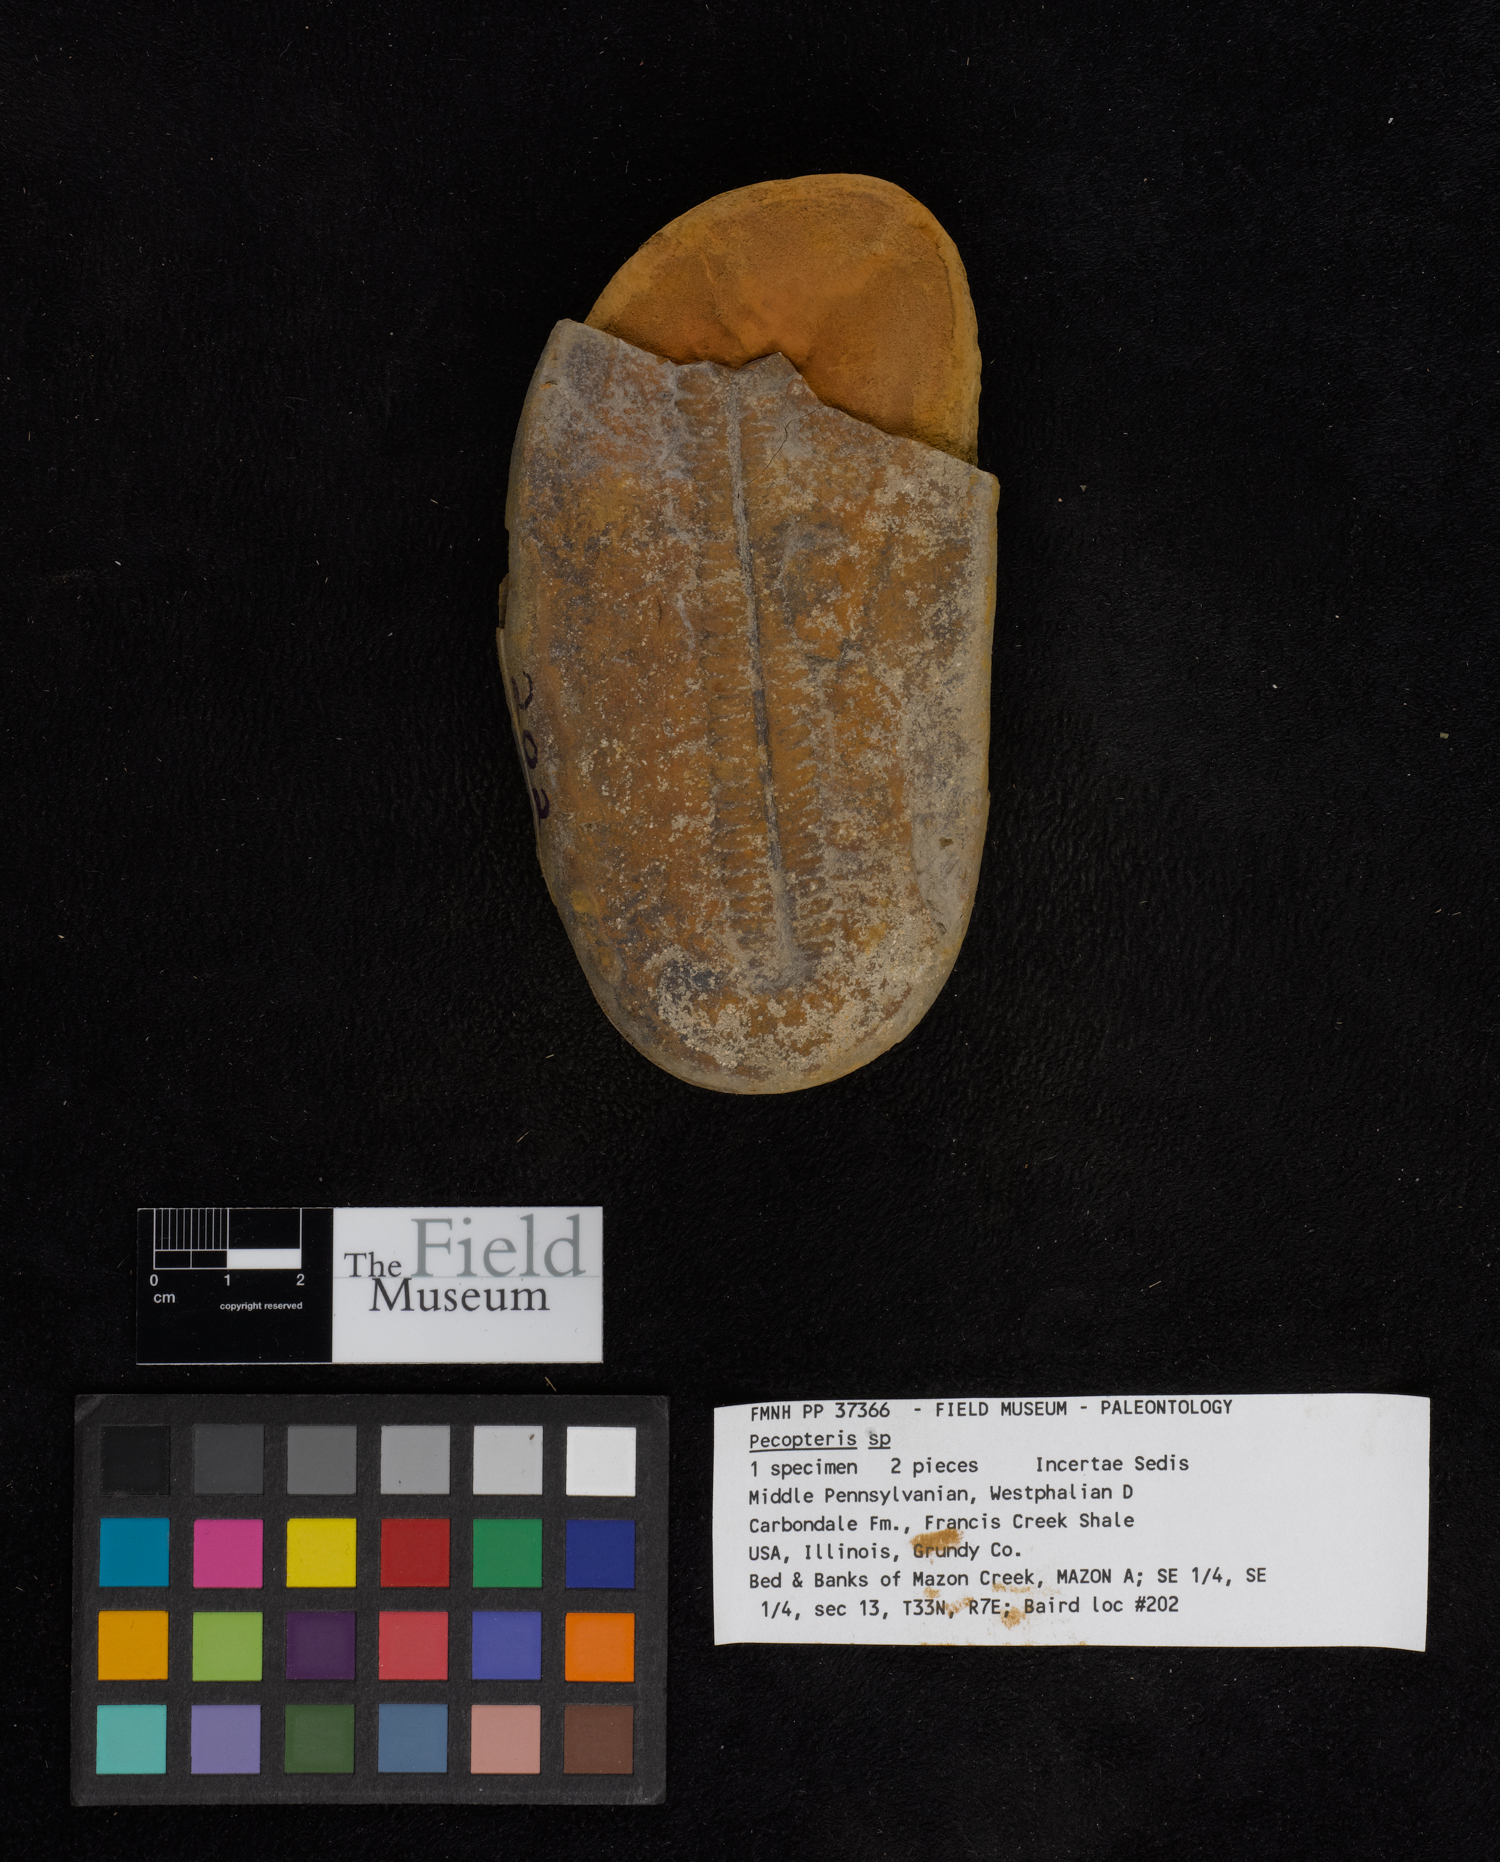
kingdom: Plantae
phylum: Tracheophyta
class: Polypodiopsida
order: Marattiales
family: Asterothecaceae
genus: Pecopteris
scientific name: Pecopteris
